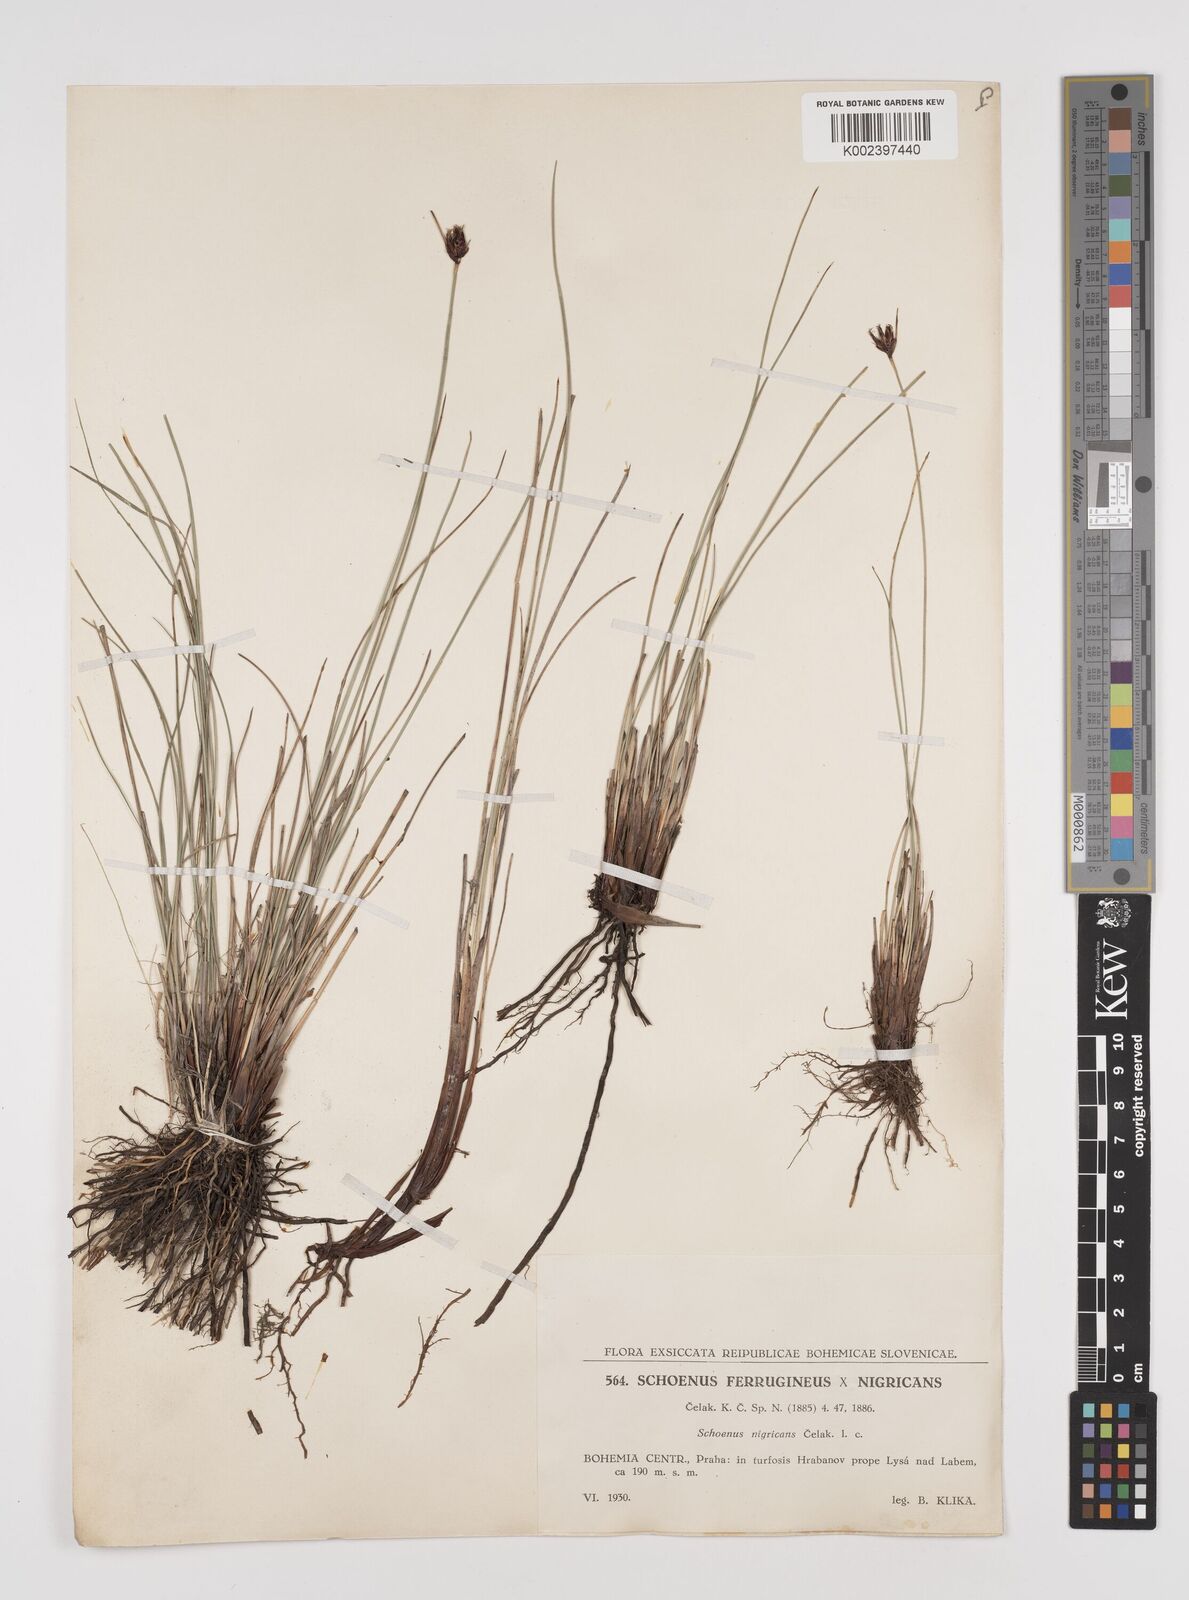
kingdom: Plantae
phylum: Tracheophyta
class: Liliopsida
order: Poales
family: Cyperaceae
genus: Schoenus
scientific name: Schoenus ferrugineus
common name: Brown bog-rush
